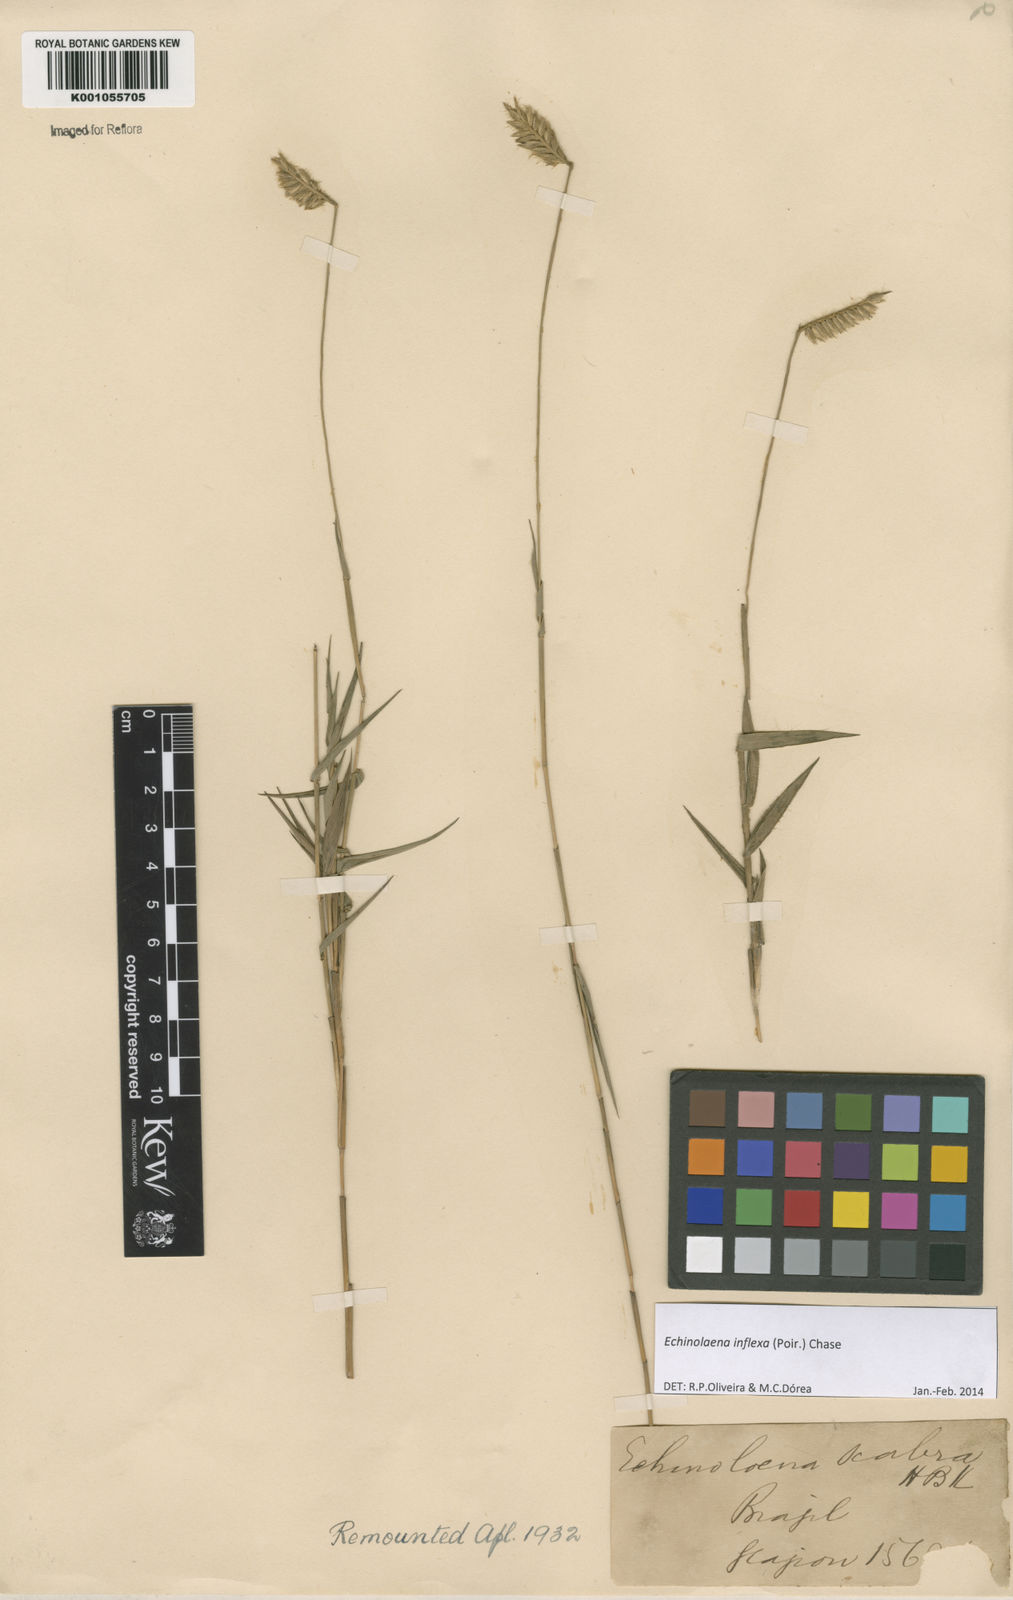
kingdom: Plantae
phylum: Tracheophyta
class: Liliopsida
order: Poales
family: Poaceae
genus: Echinolaena
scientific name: Echinolaena inflexa
